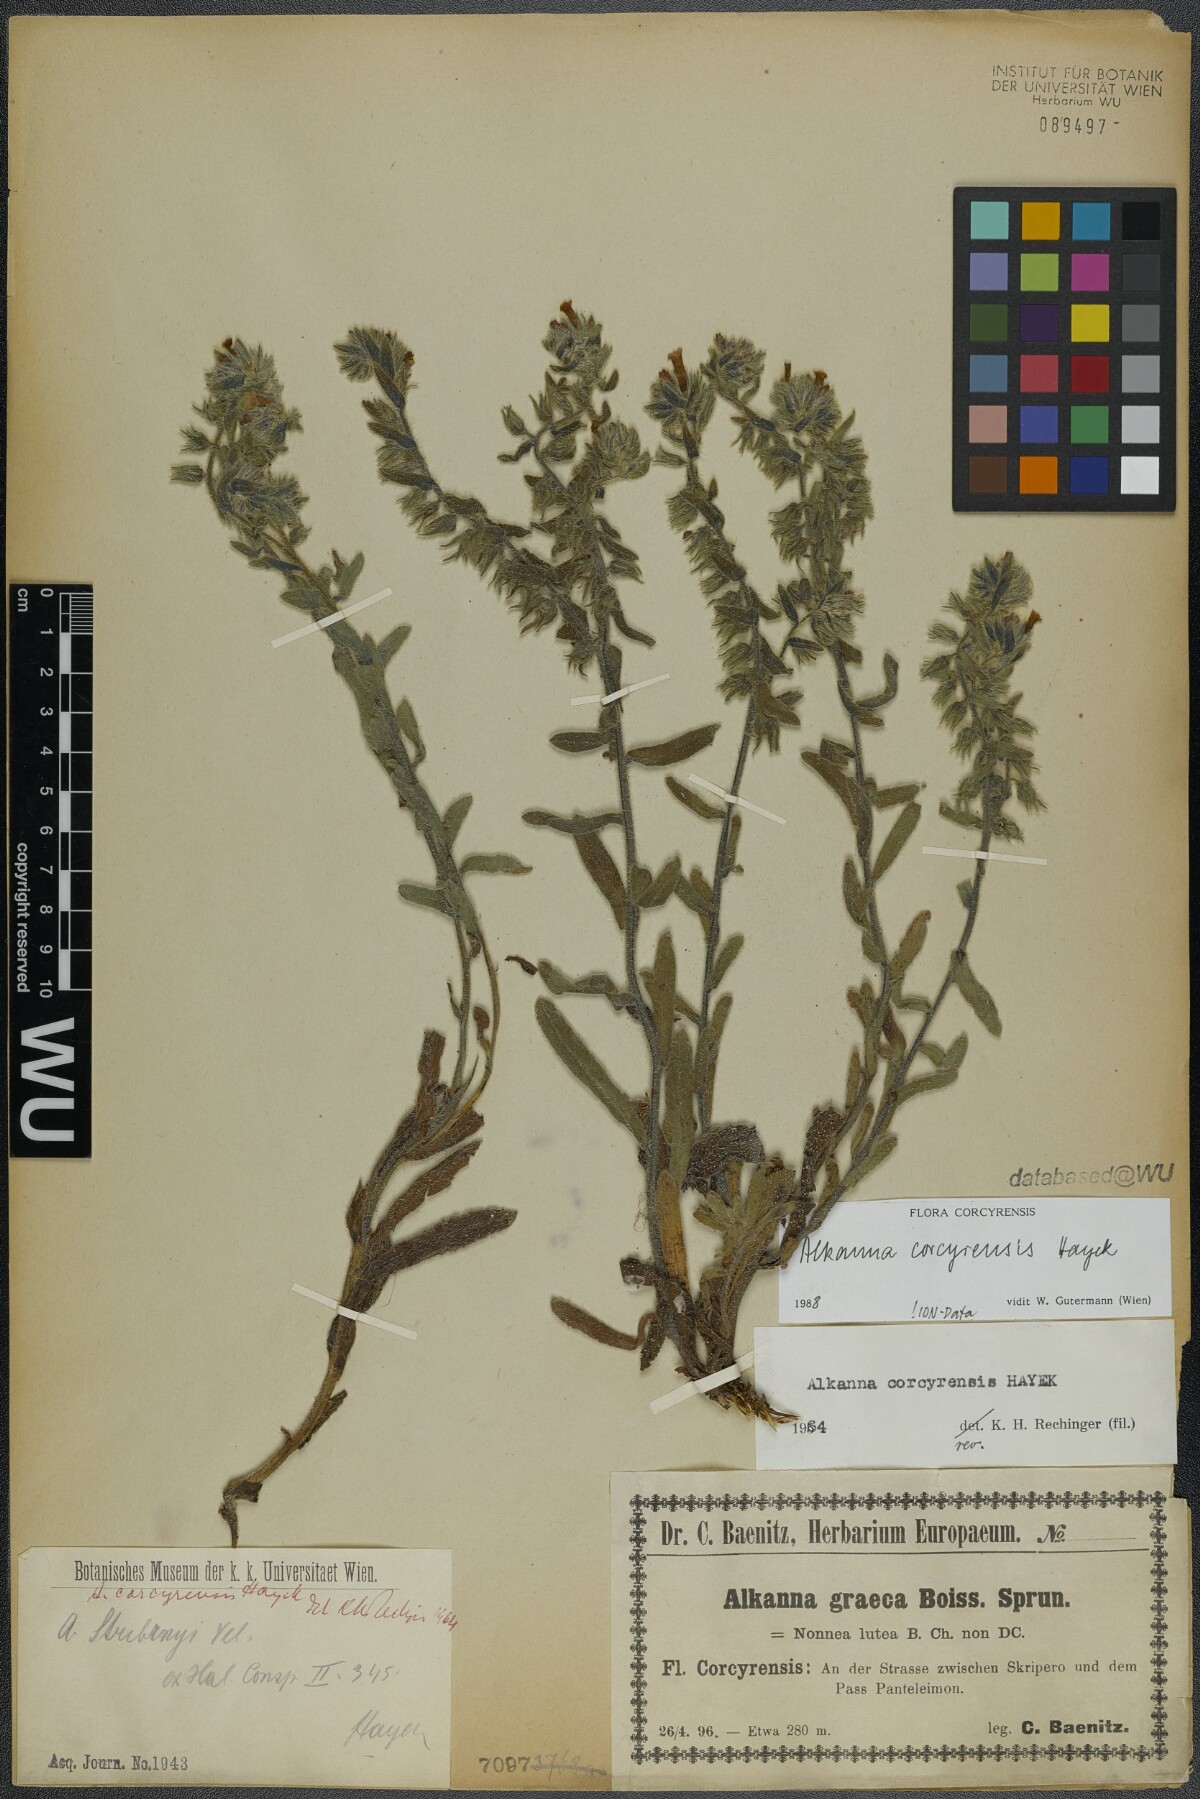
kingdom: Plantae
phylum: Tracheophyta
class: Magnoliopsida
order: Boraginales
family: Boraginaceae
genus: Alkanna
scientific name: Alkanna corcyrensis
